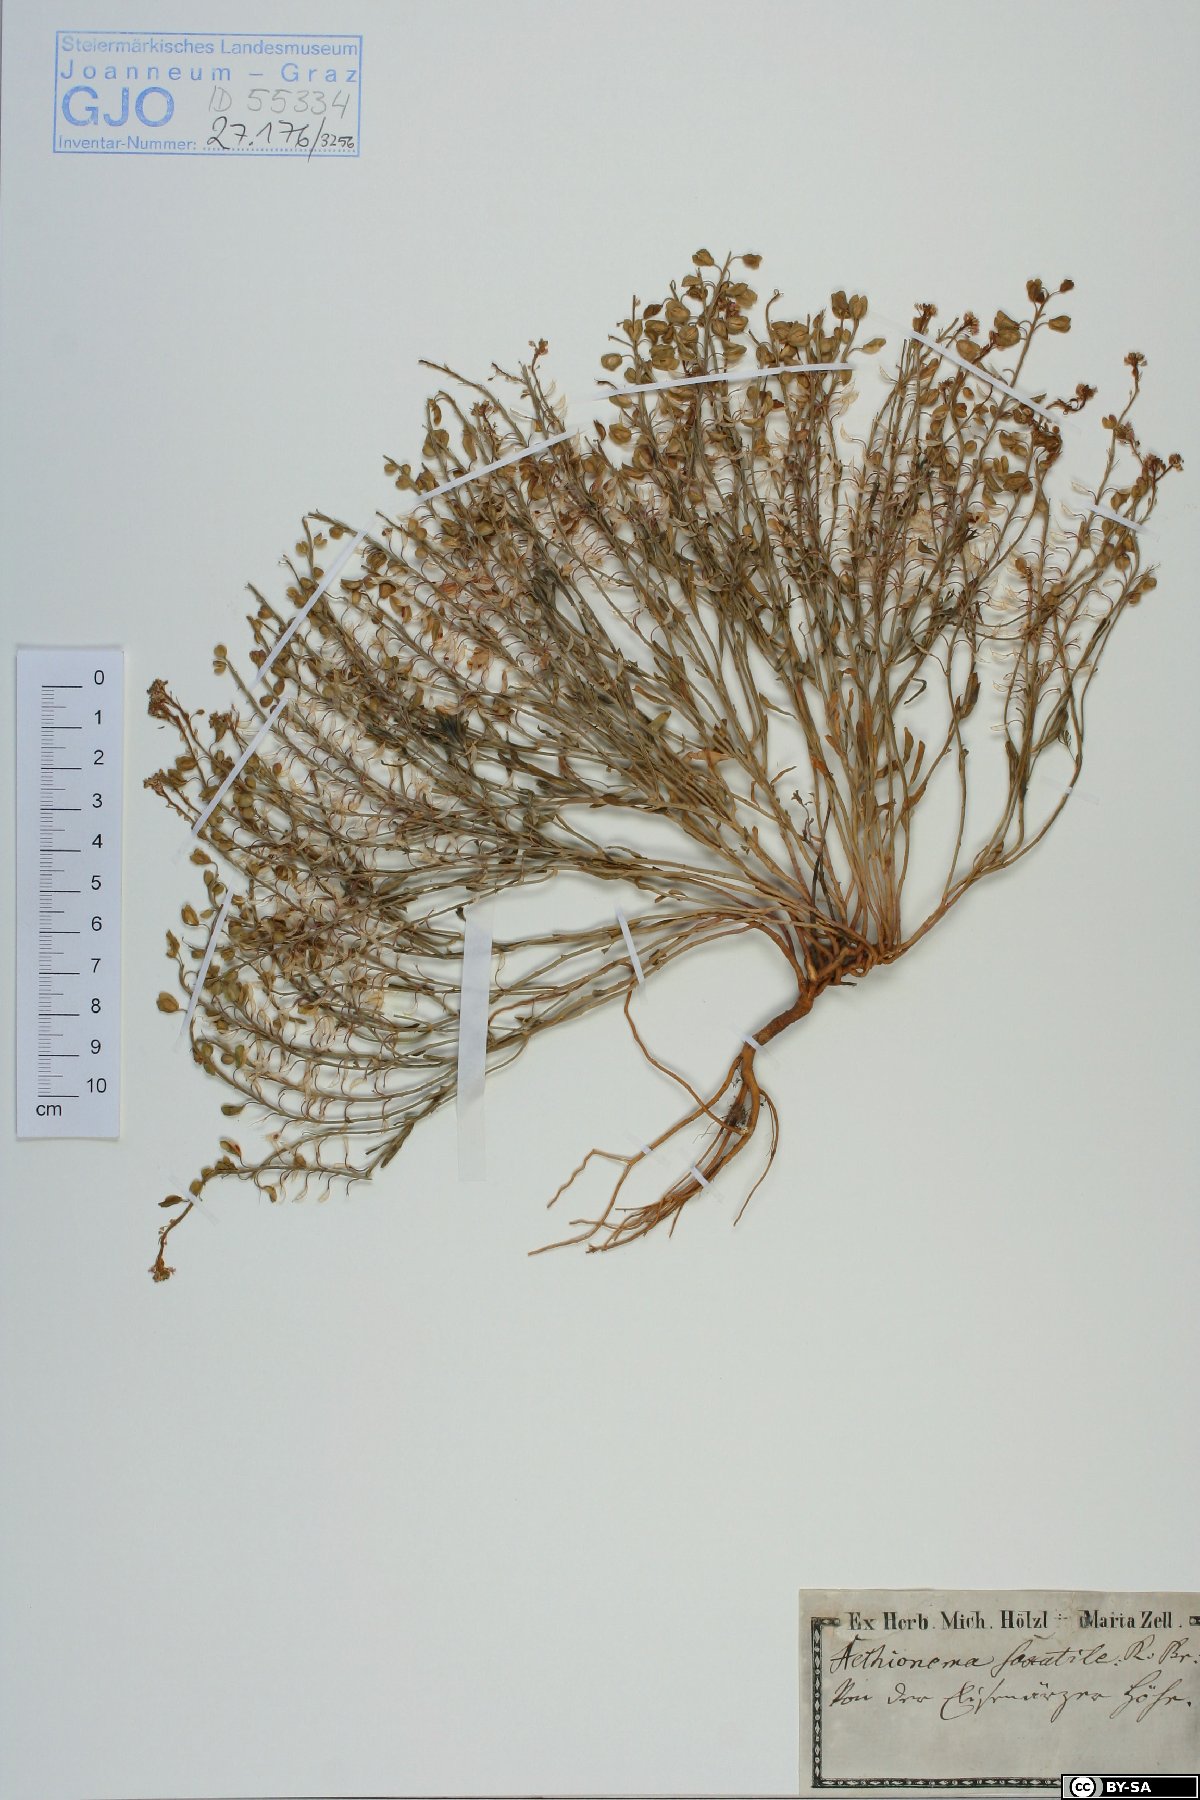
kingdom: Plantae
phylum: Tracheophyta
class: Magnoliopsida
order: Brassicales
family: Brassicaceae
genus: Aethionema
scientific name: Aethionema saxatile
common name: Burnt candytuft
